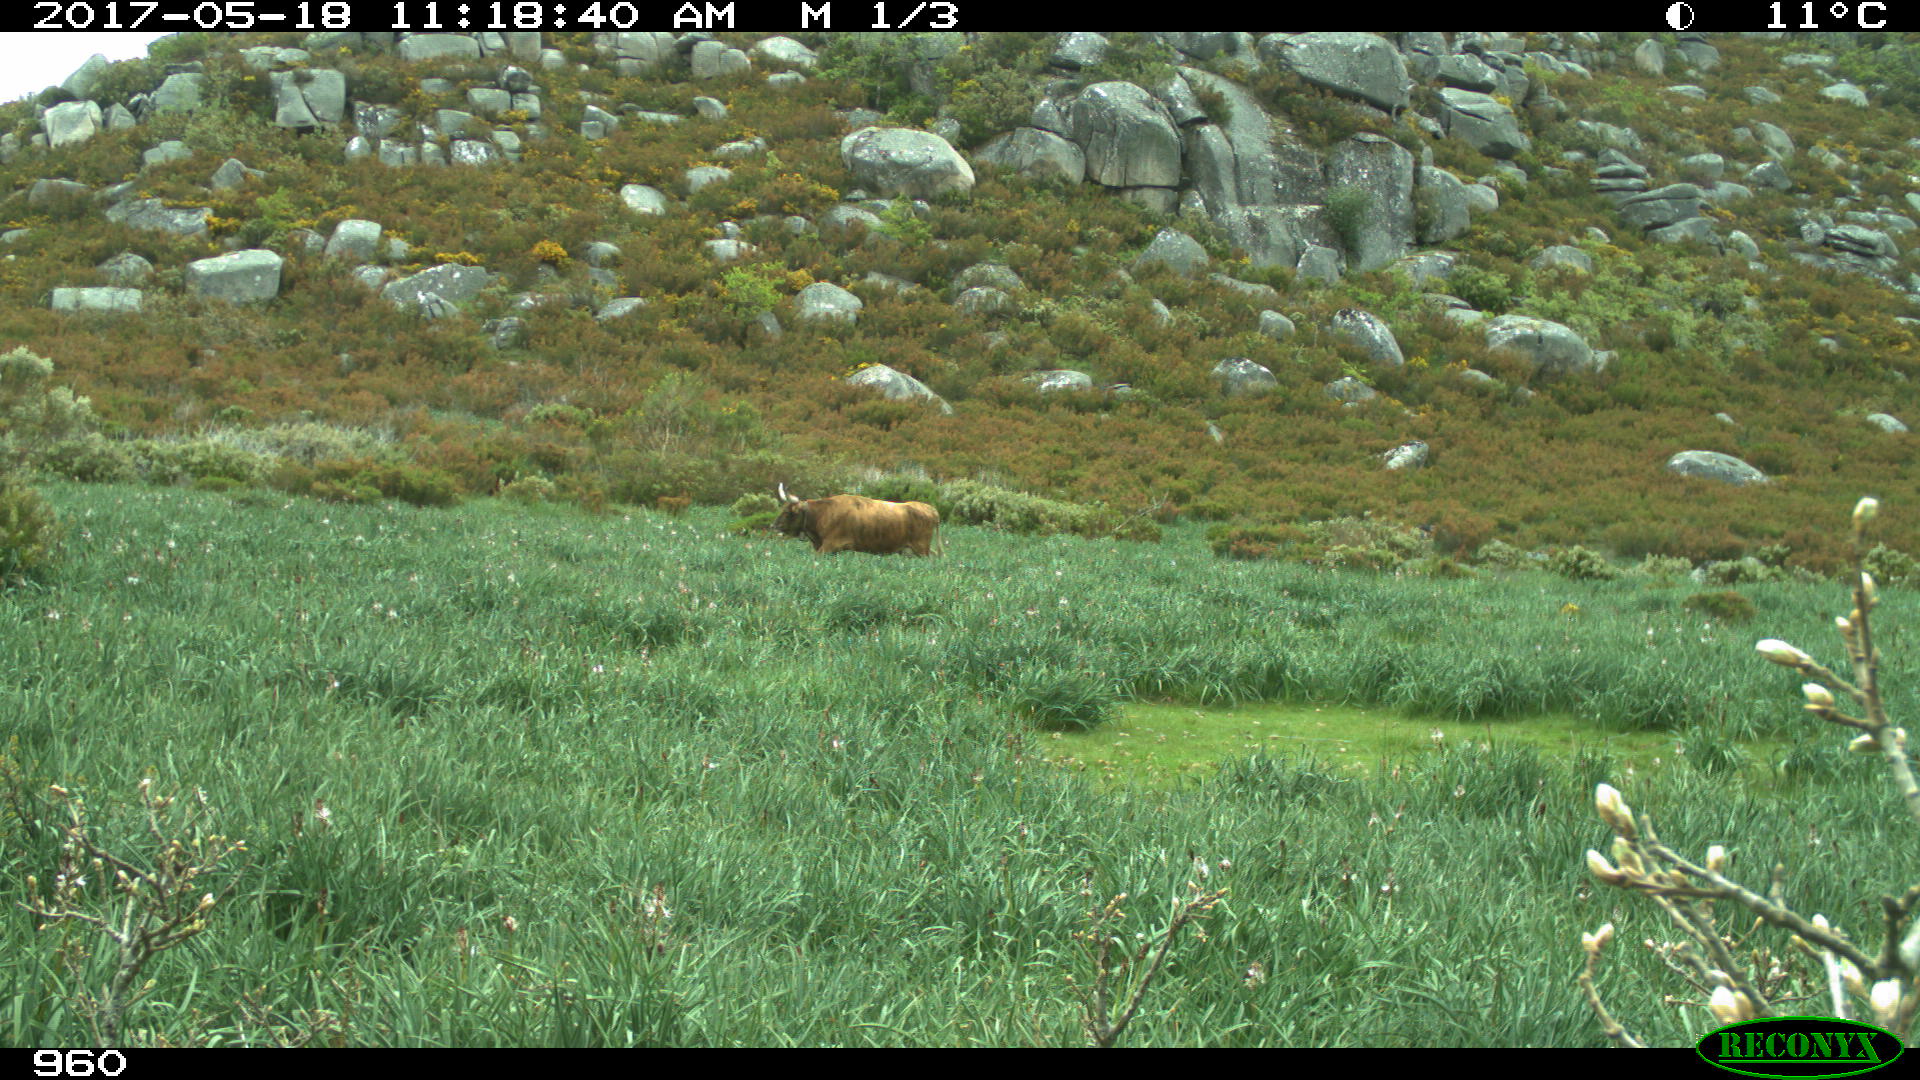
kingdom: Animalia
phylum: Chordata
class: Mammalia
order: Artiodactyla
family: Bovidae
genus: Bos
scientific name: Bos taurus
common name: Domesticated cattle
